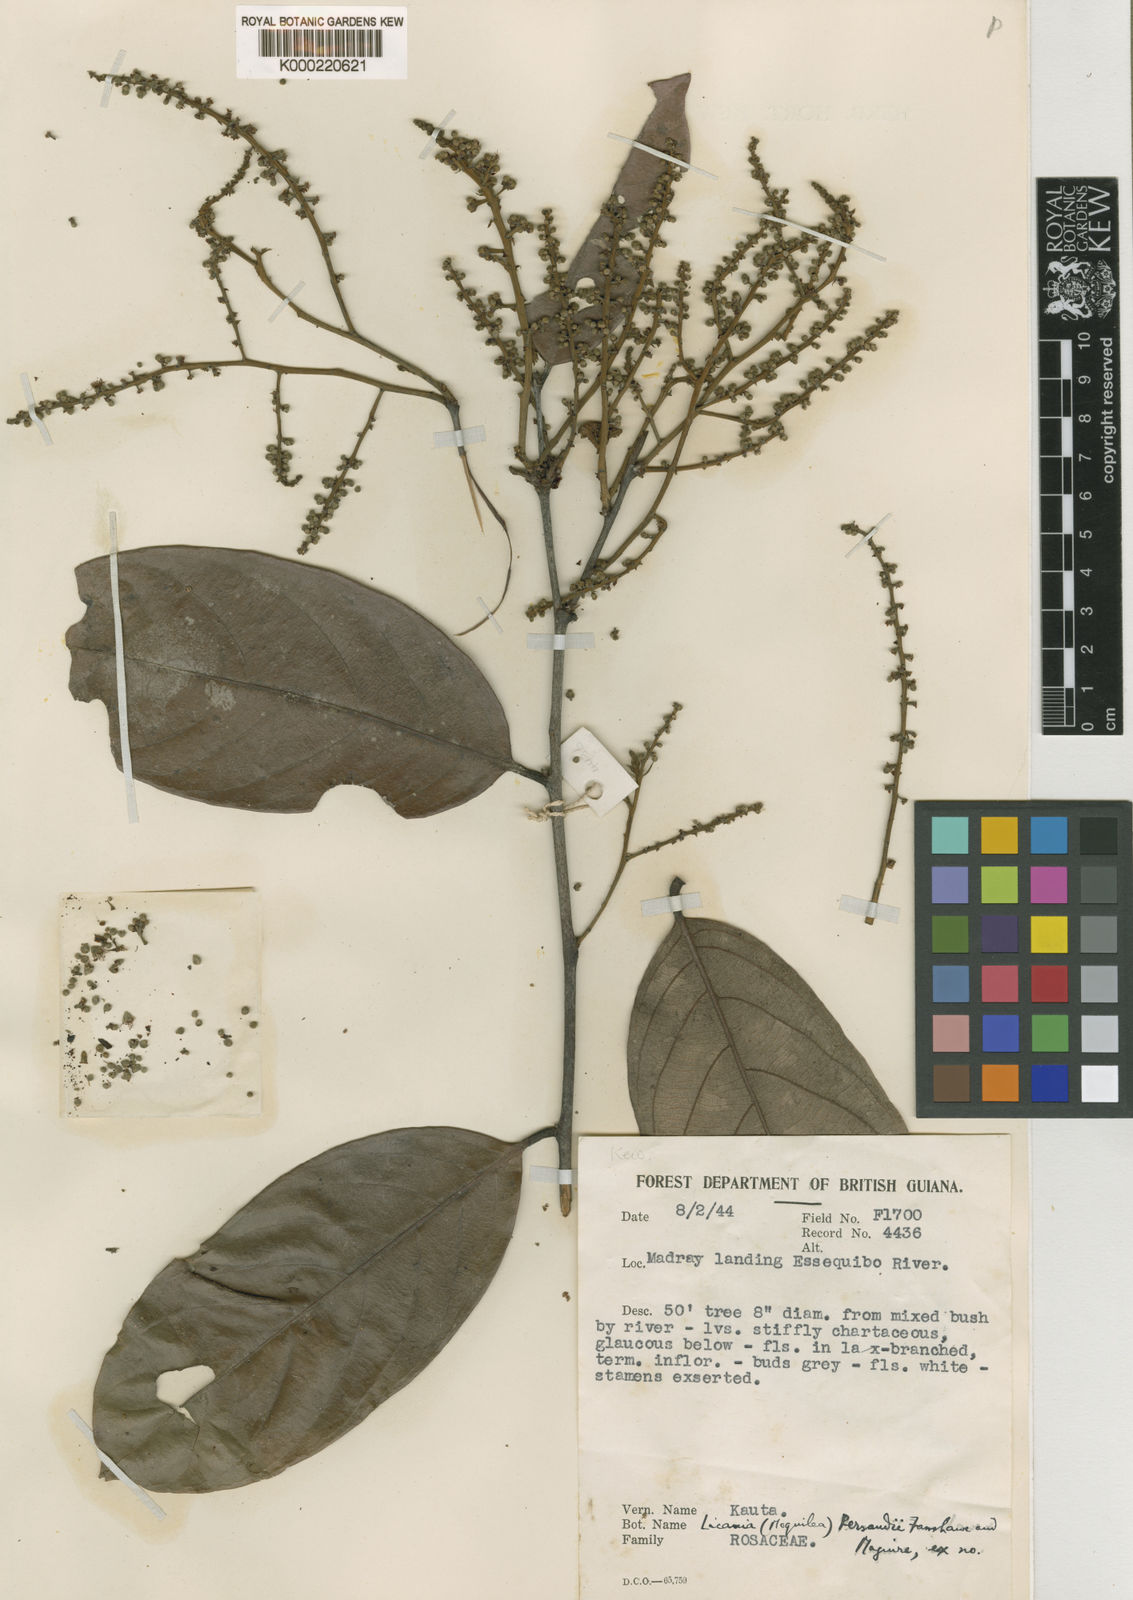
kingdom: Plantae
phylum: Tracheophyta
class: Magnoliopsida
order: Malpighiales
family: Chrysobalanaceae
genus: Leptobalanus
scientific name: Leptobalanus persaudii
